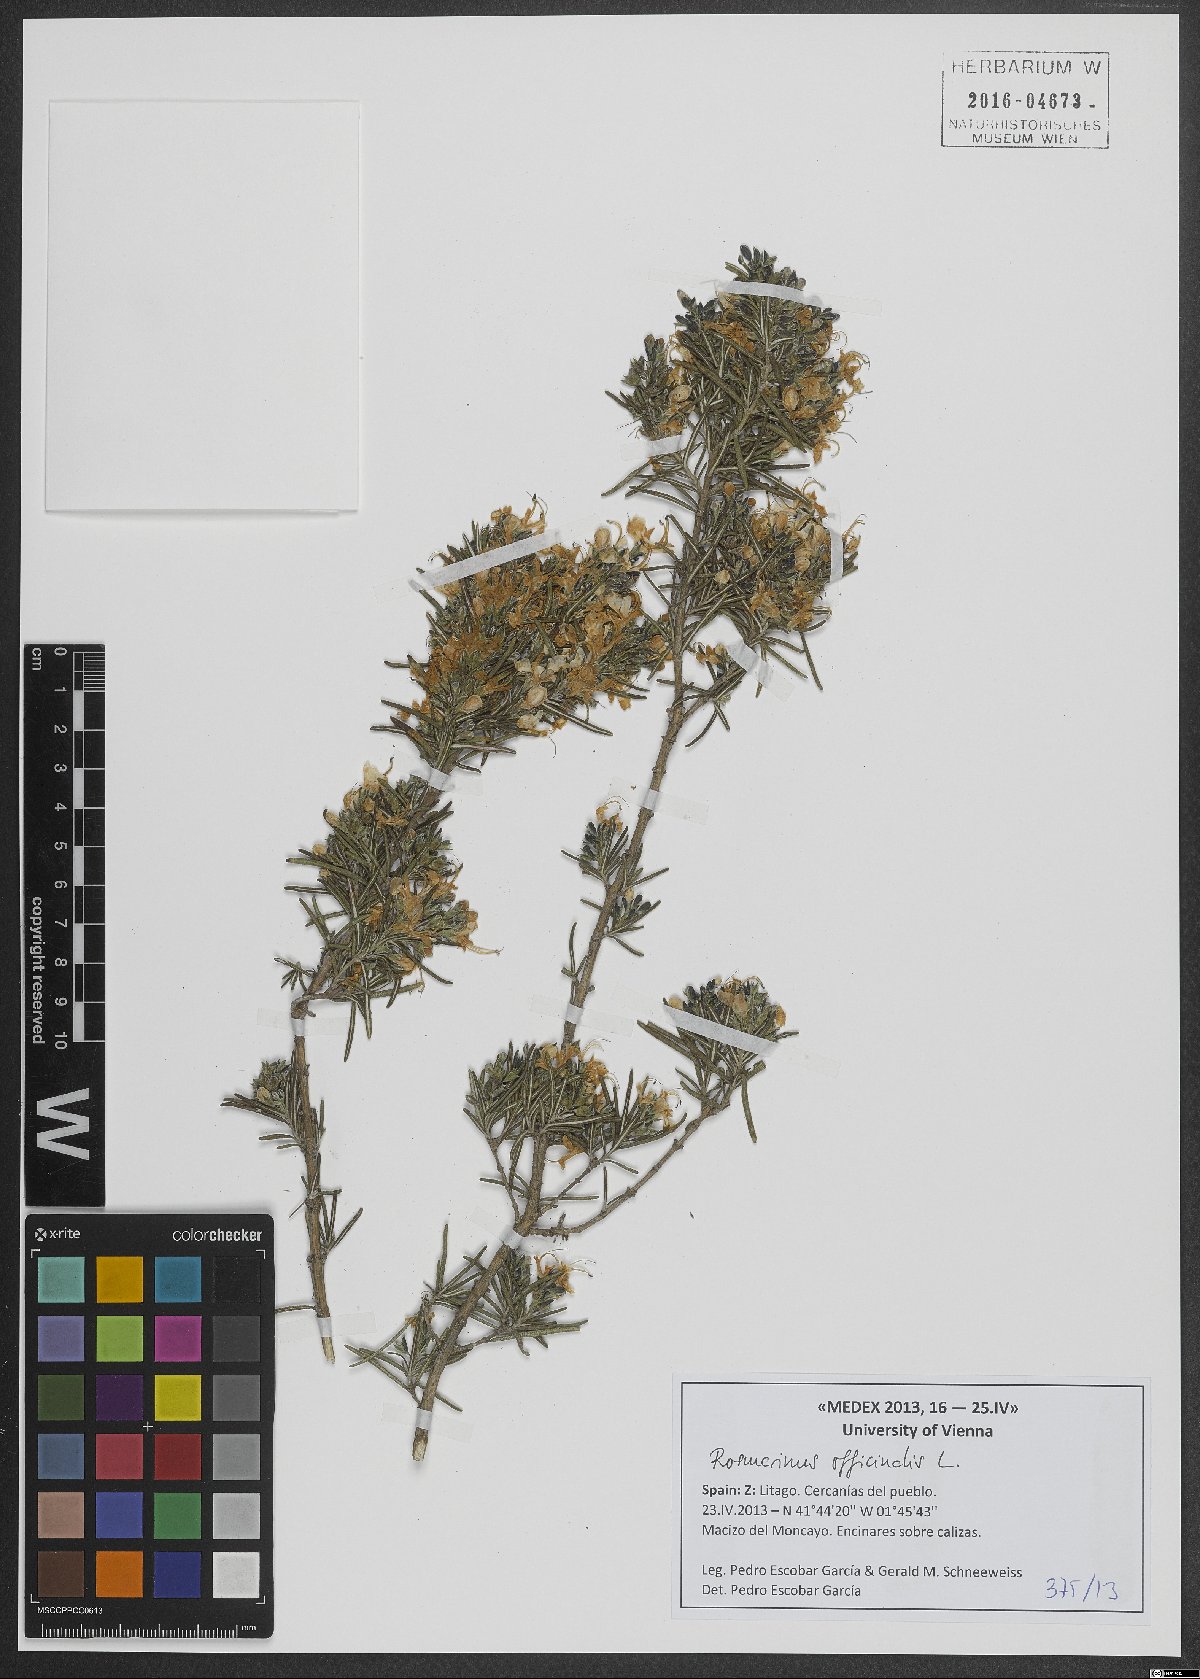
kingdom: Plantae
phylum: Tracheophyta
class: Magnoliopsida
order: Lamiales
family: Lamiaceae
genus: Salvia
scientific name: Salvia rosmarinus
